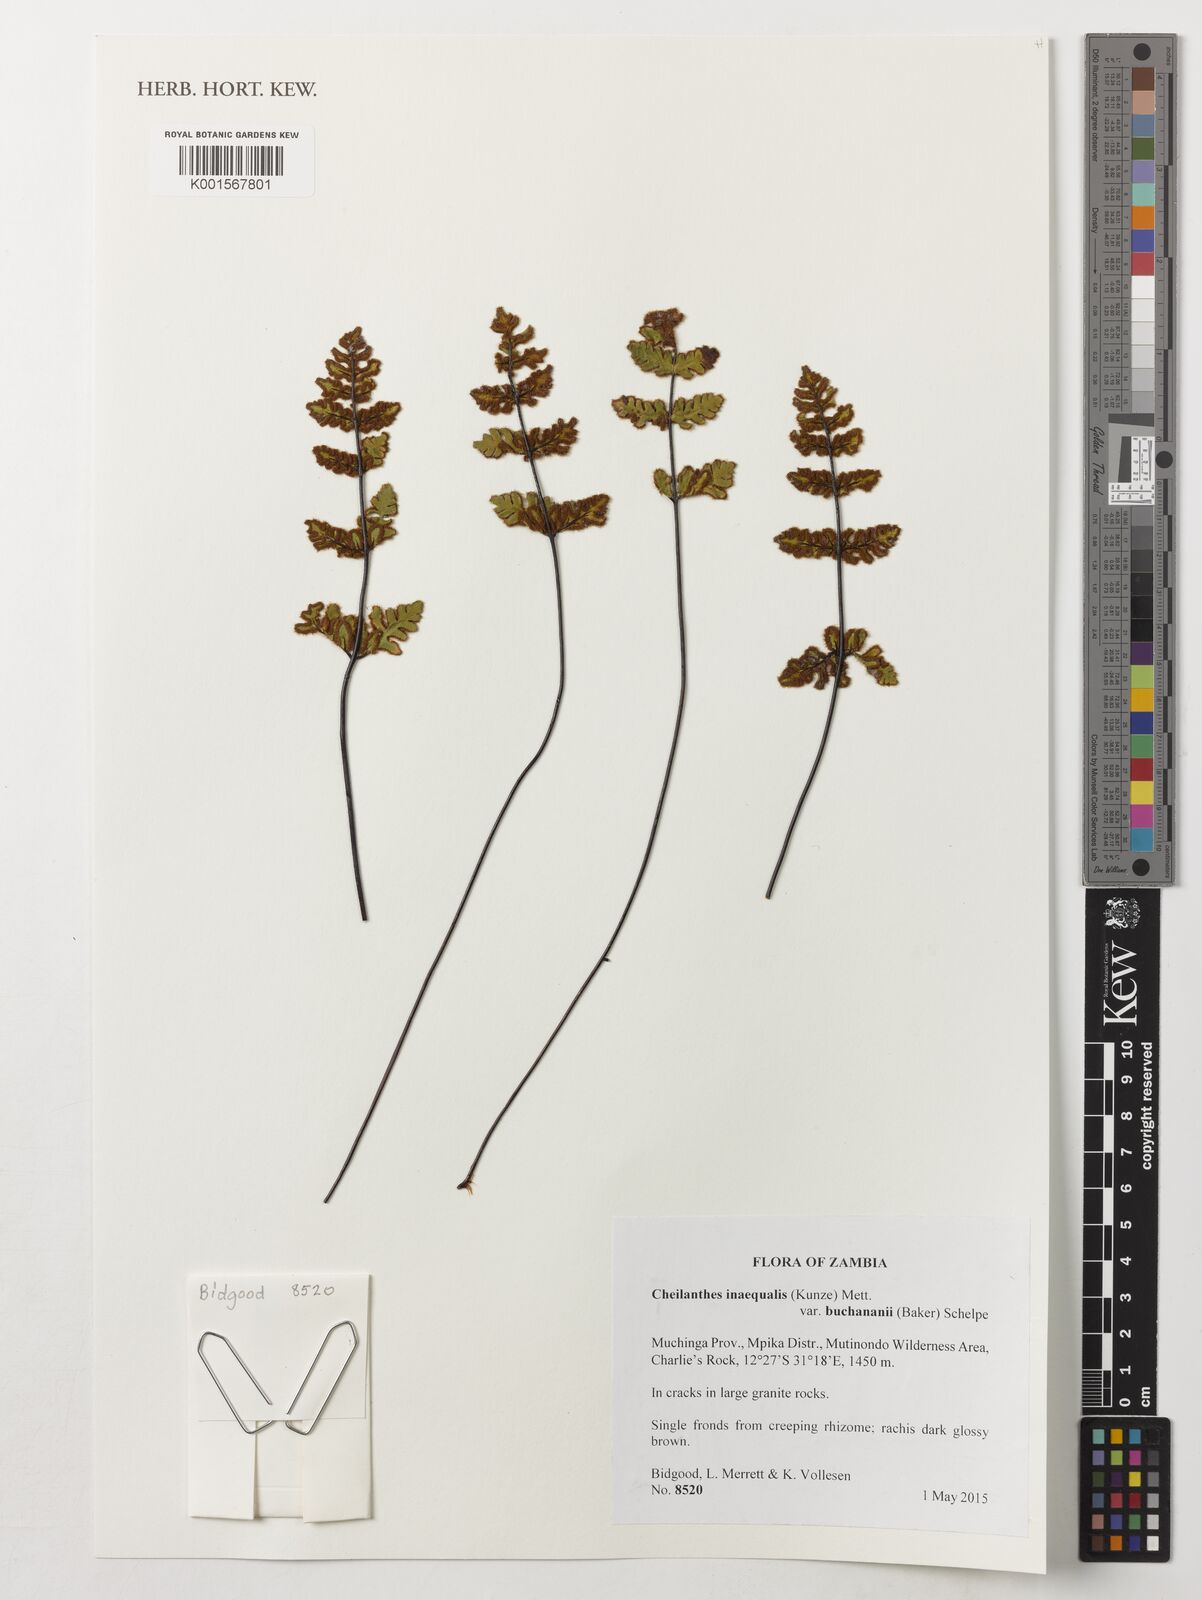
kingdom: Plantae
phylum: Tracheophyta
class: Polypodiopsida
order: Polypodiales
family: Pteridaceae
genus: Cheilanthes
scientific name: Cheilanthes inaequalis
